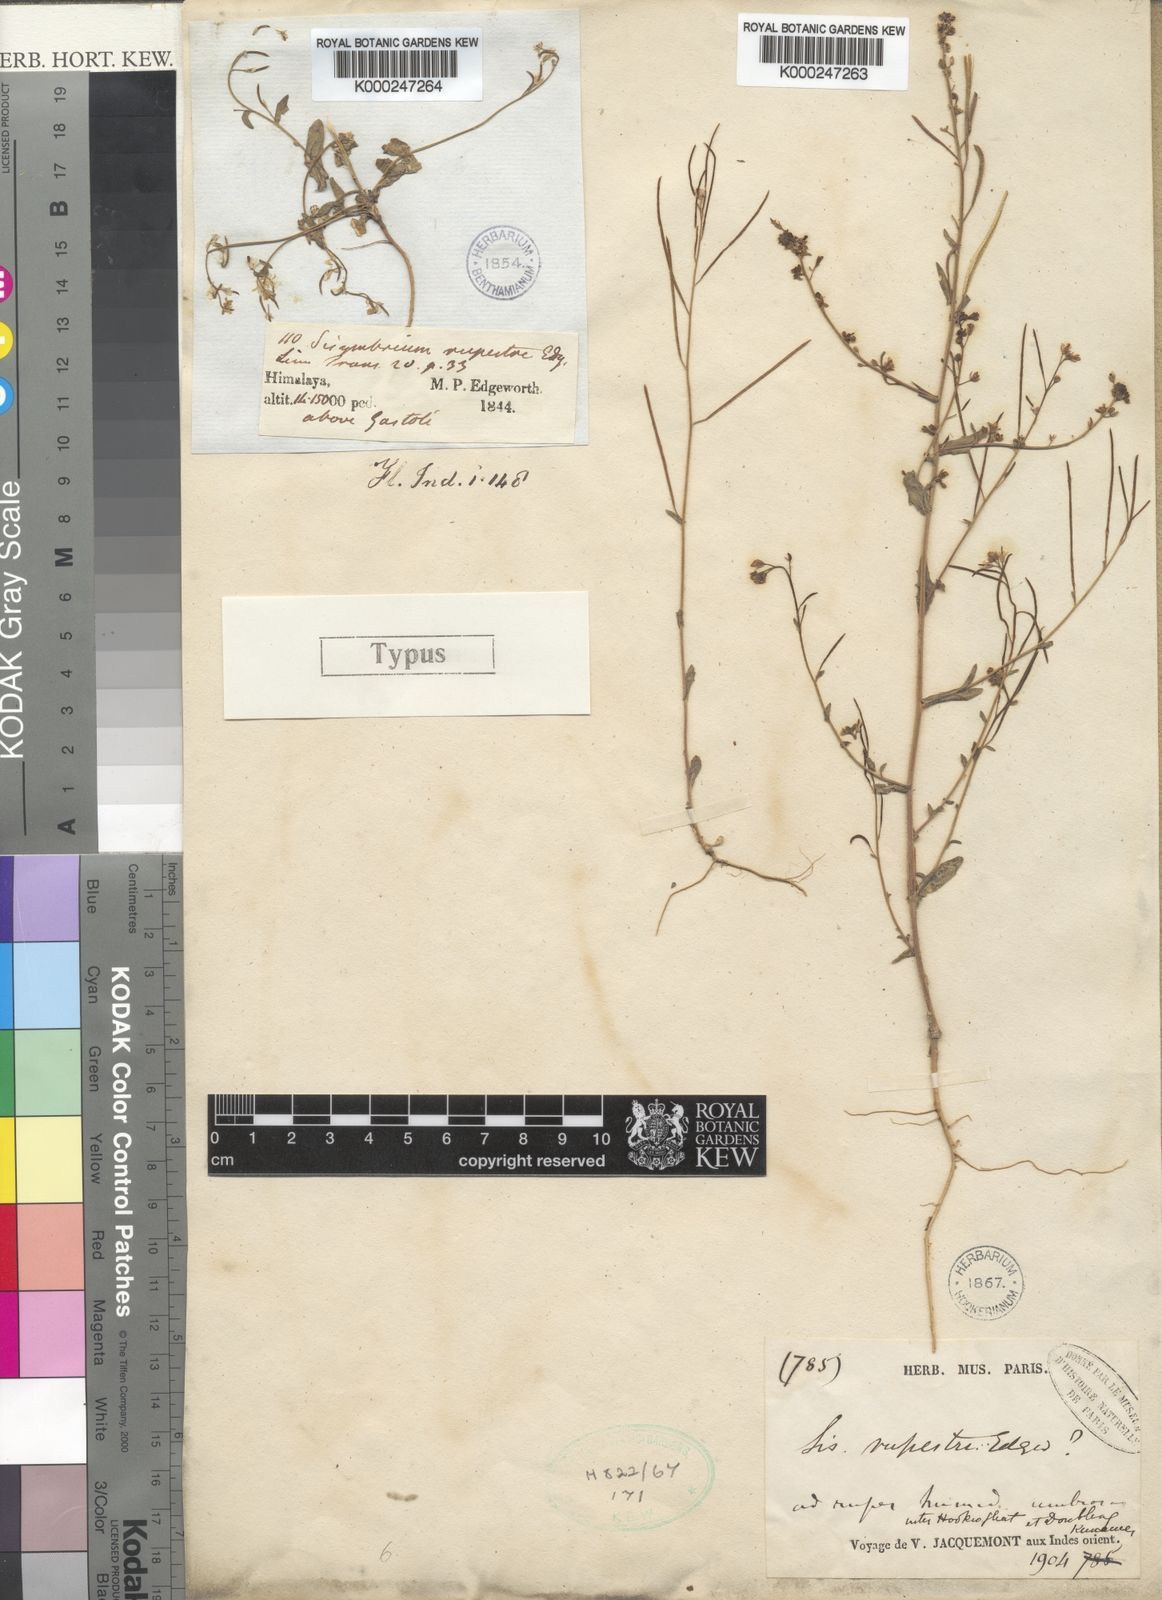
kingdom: Plantae
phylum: Tracheophyta
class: Magnoliopsida
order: Brassicales
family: Brassicaceae
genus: Crucihimalaya
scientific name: Crucihimalaya himalaica
